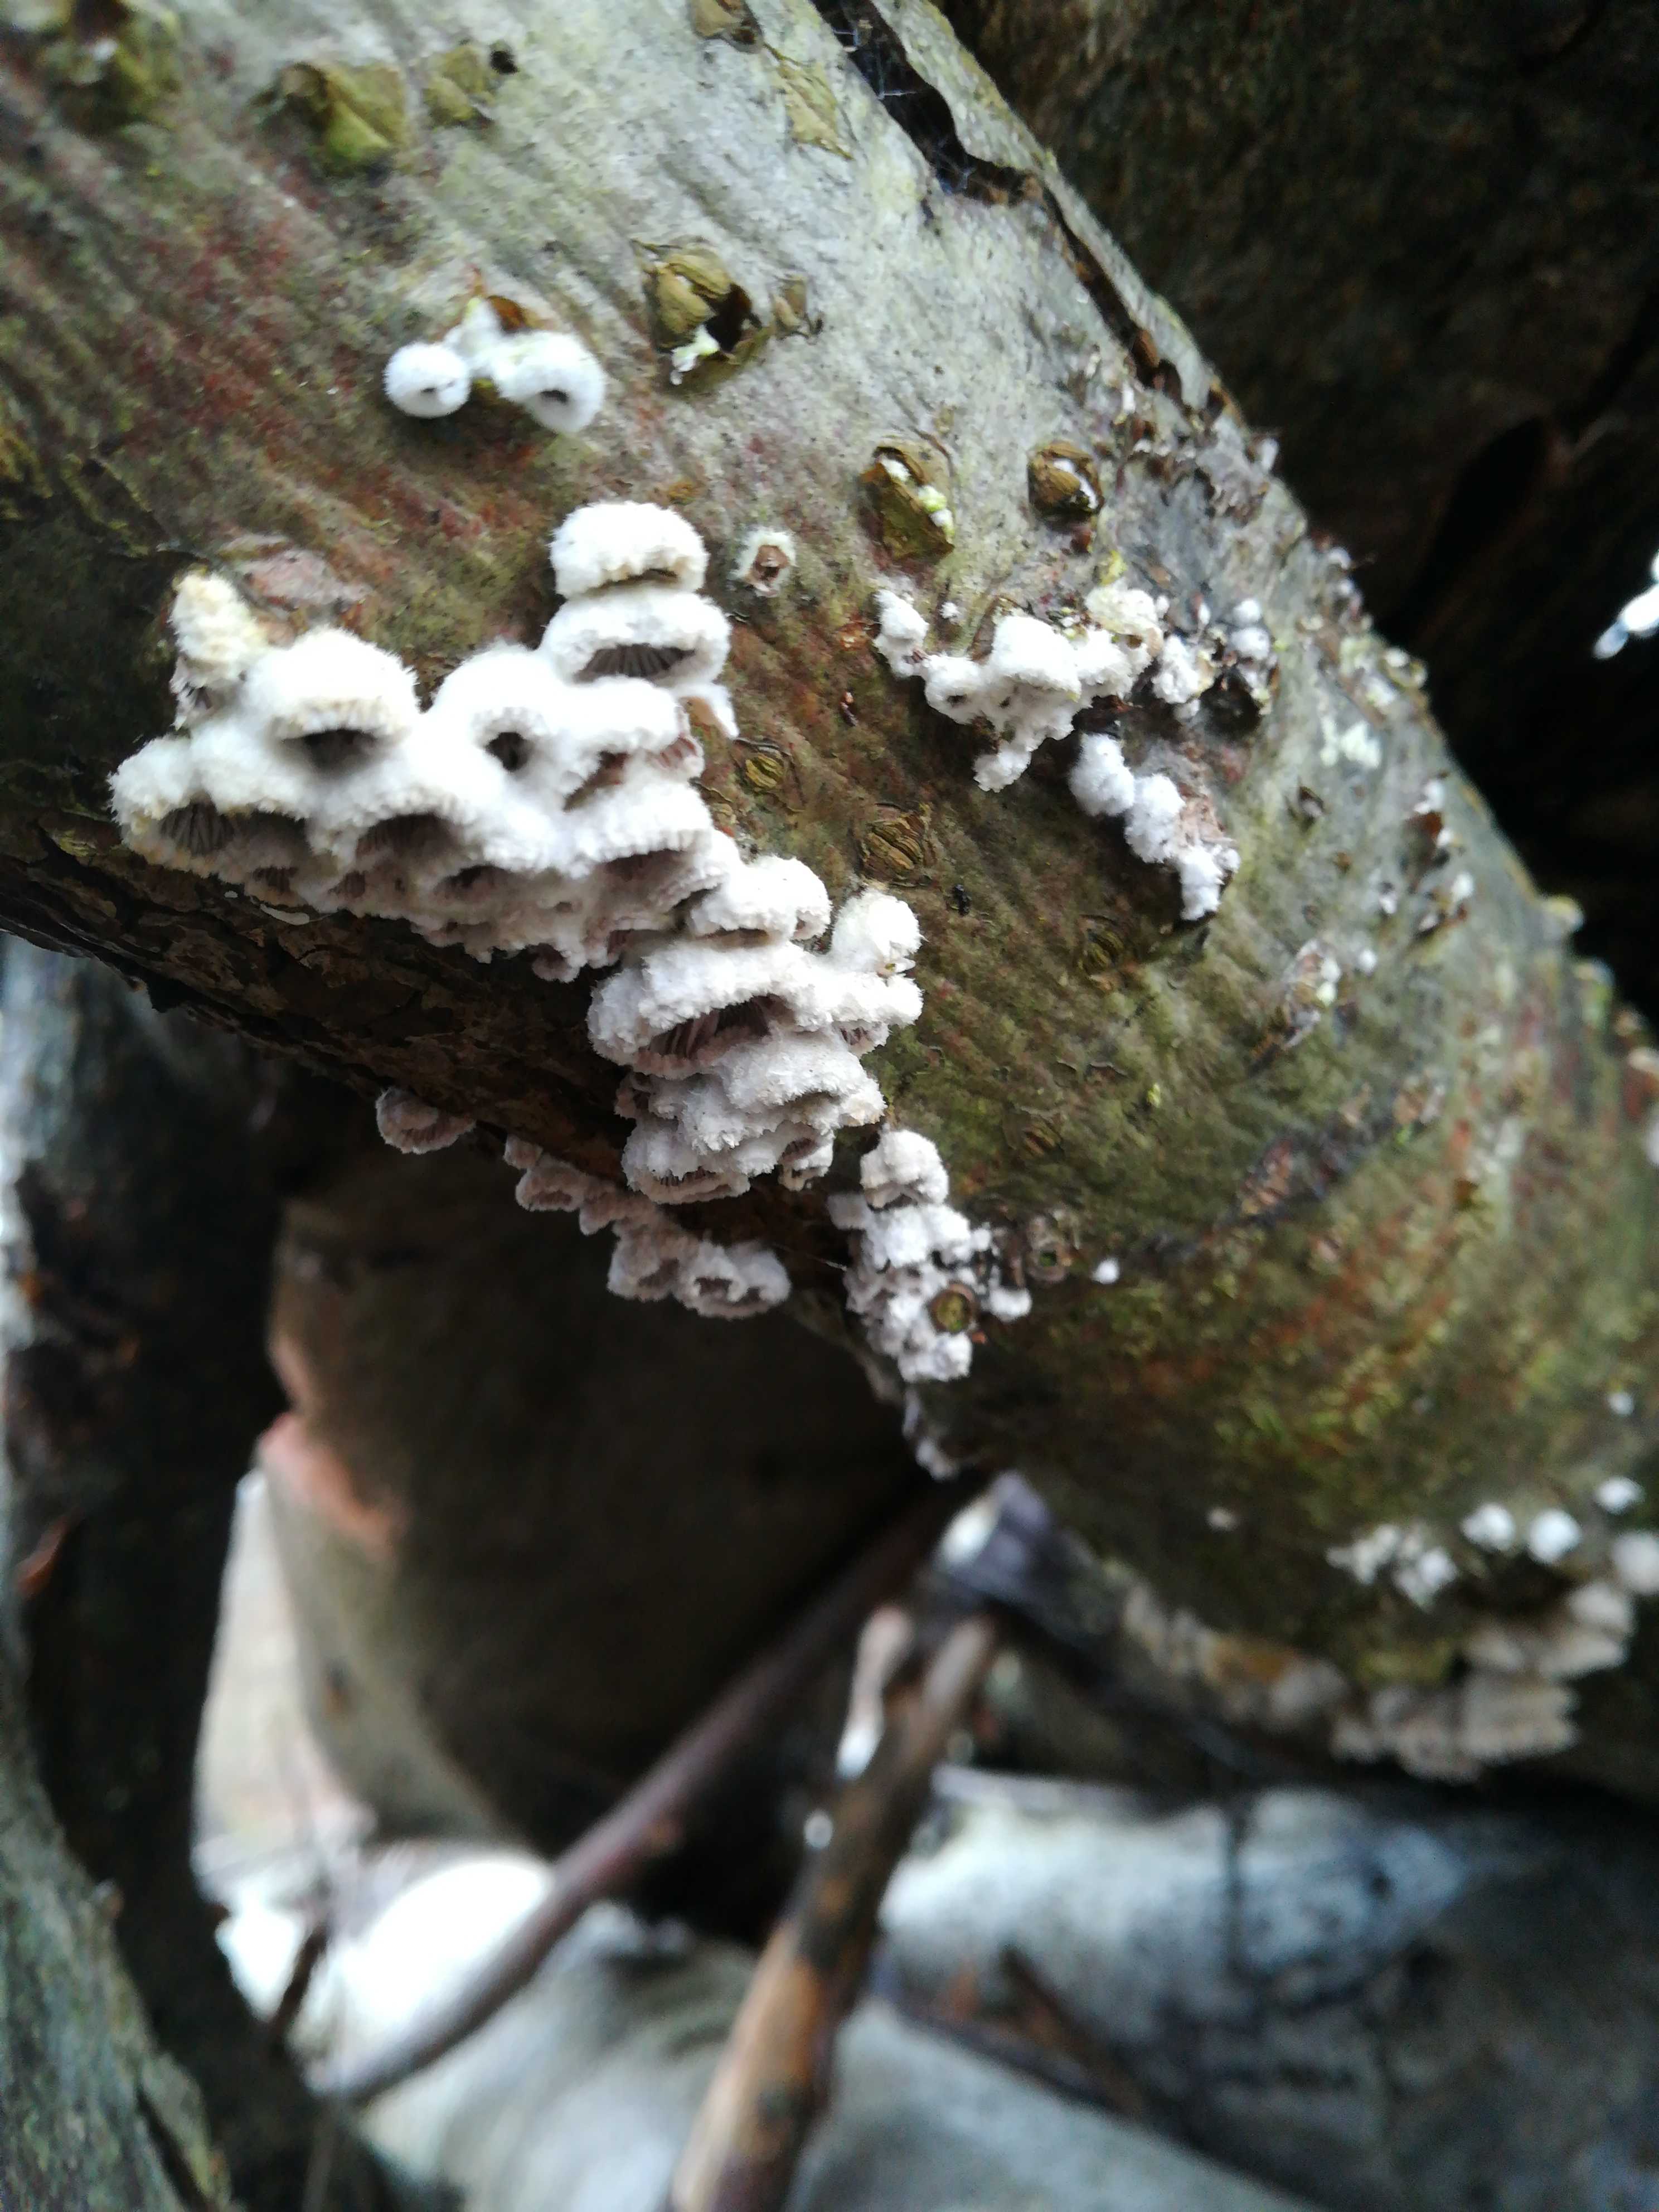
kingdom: Fungi
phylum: Basidiomycota
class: Agaricomycetes
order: Agaricales
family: Schizophyllaceae
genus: Schizophyllum
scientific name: Schizophyllum commune
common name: kløvblad
